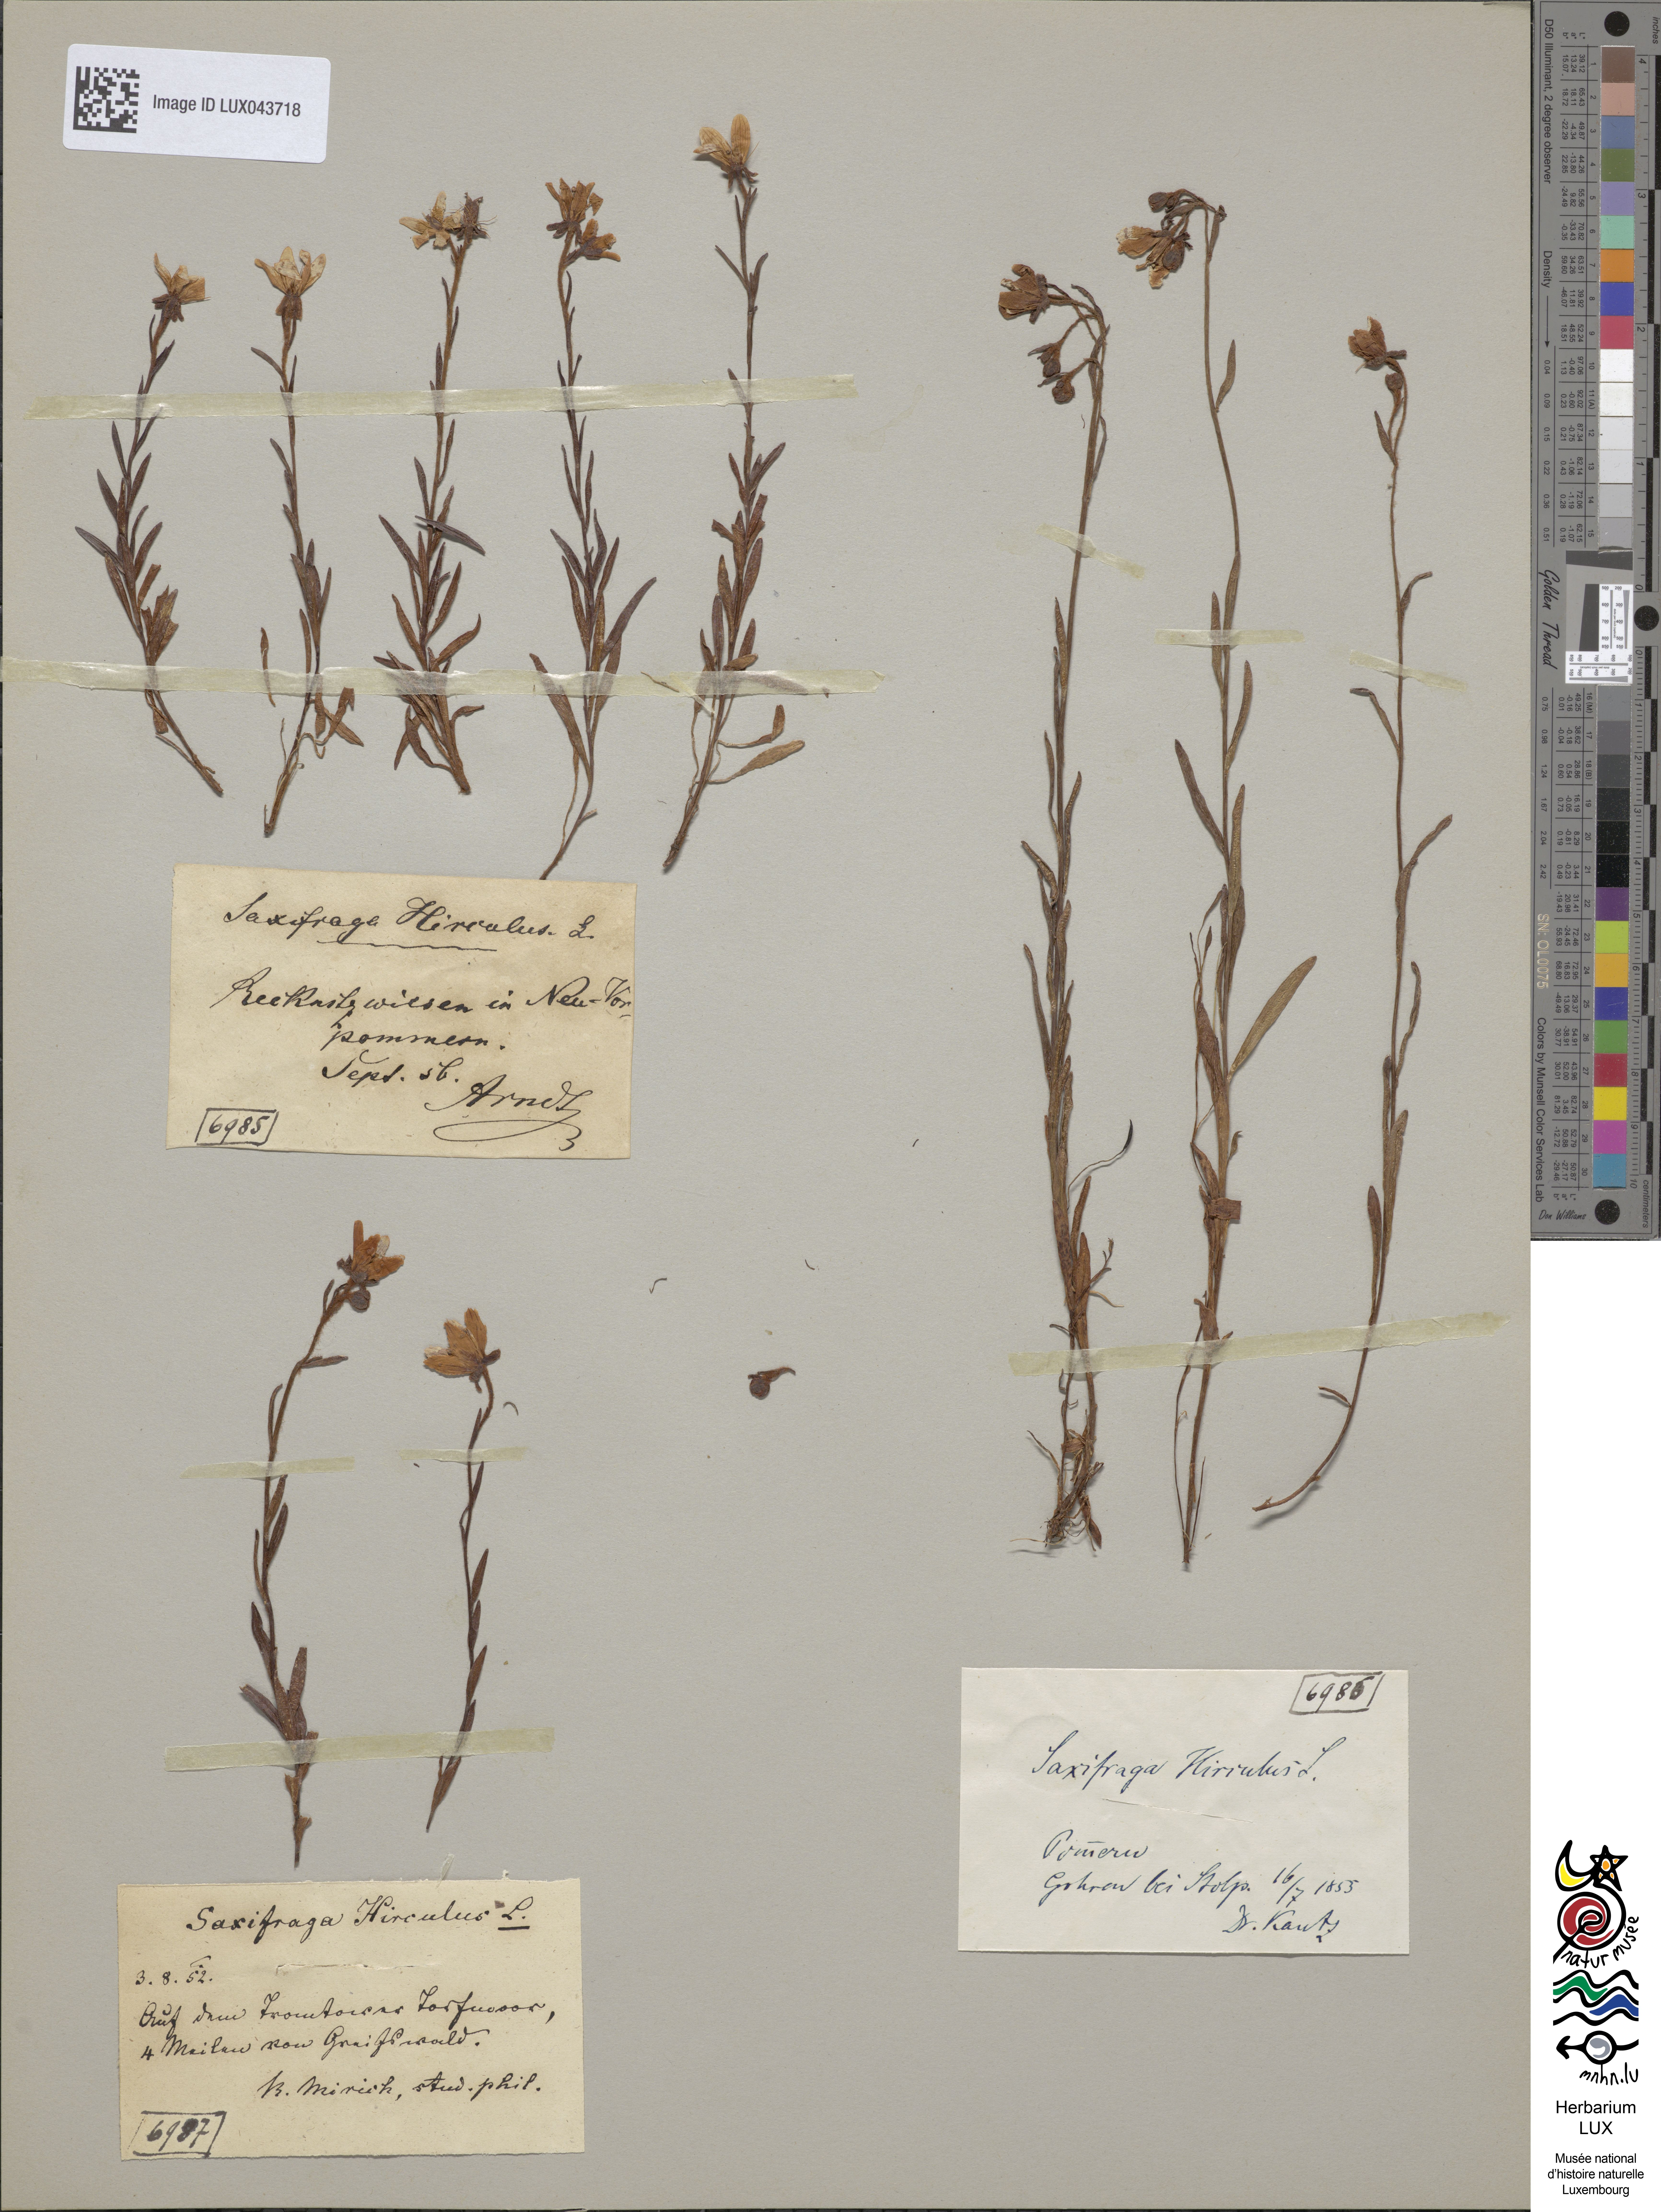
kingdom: Plantae
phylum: Tracheophyta
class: Magnoliopsida
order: Saxifragales
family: Saxifragaceae
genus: Saxifraga
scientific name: Saxifraga hirculus
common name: Yellow marsh saxifrage
